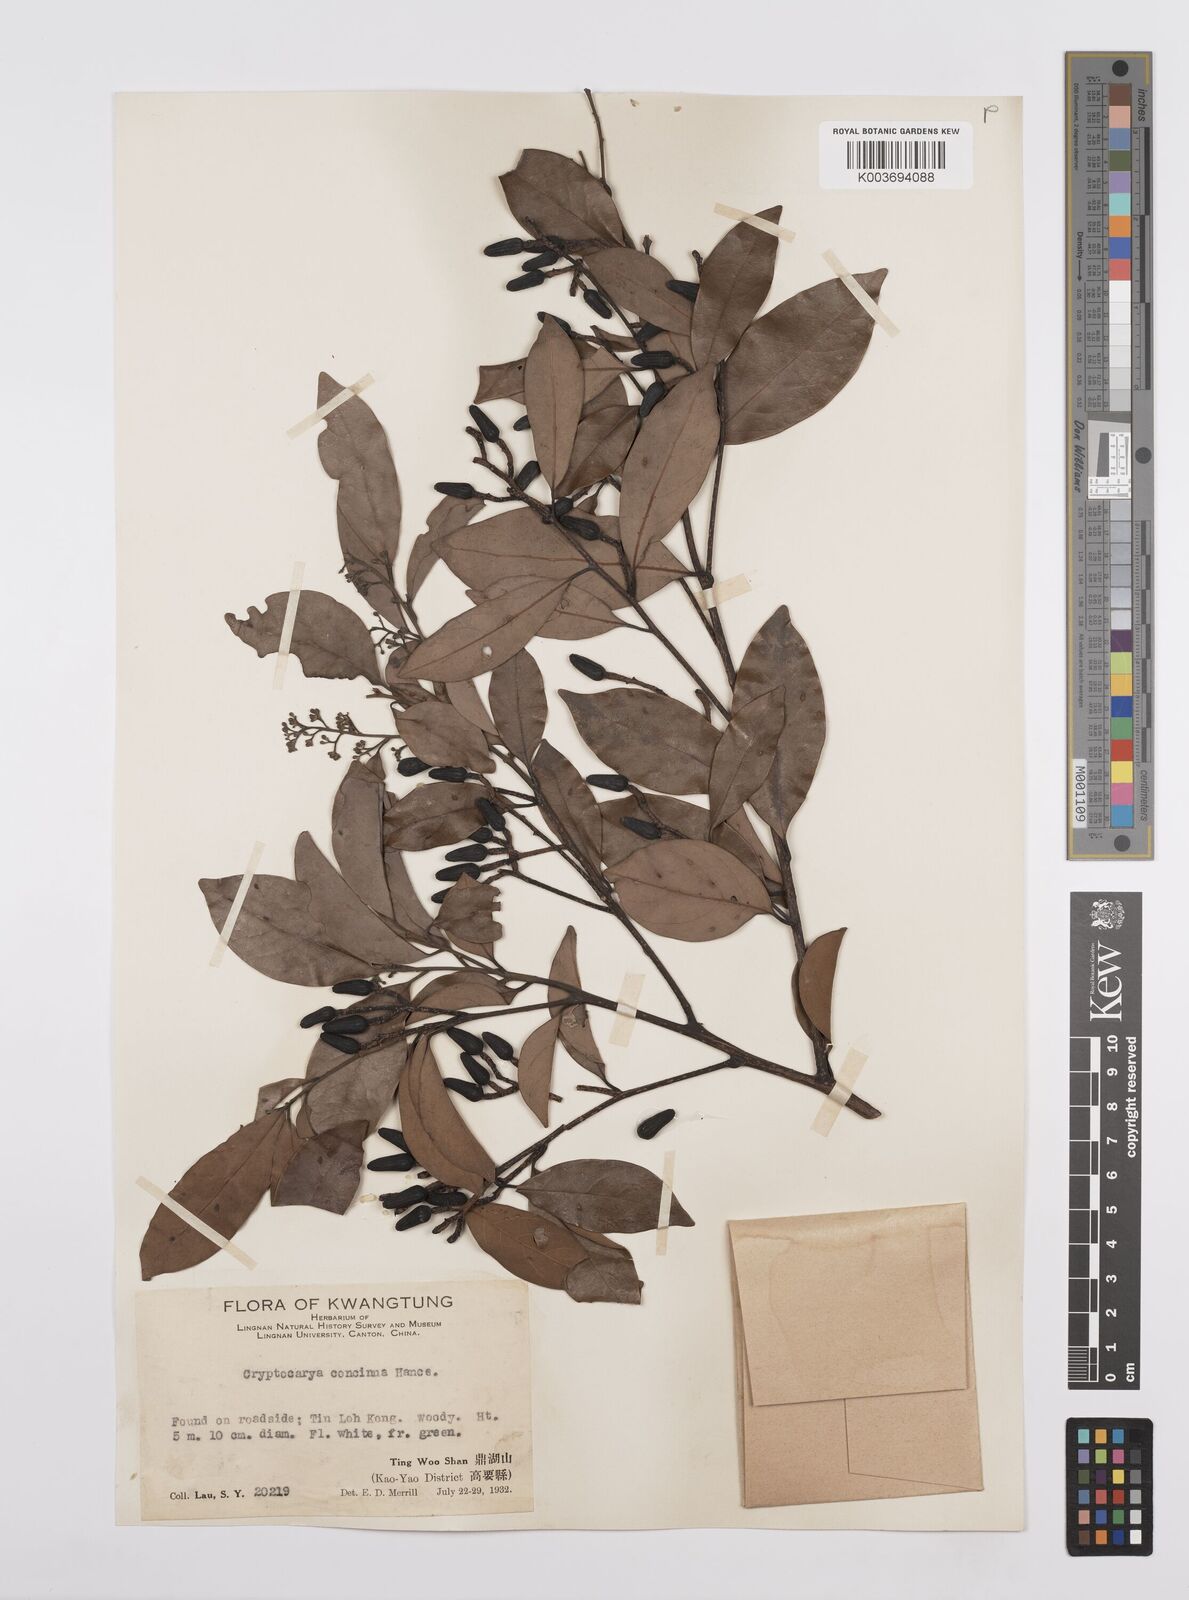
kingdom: Plantae
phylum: Tracheophyta
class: Magnoliopsida
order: Laurales
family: Lauraceae
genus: Cryptocarya
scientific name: Cryptocarya concinna
